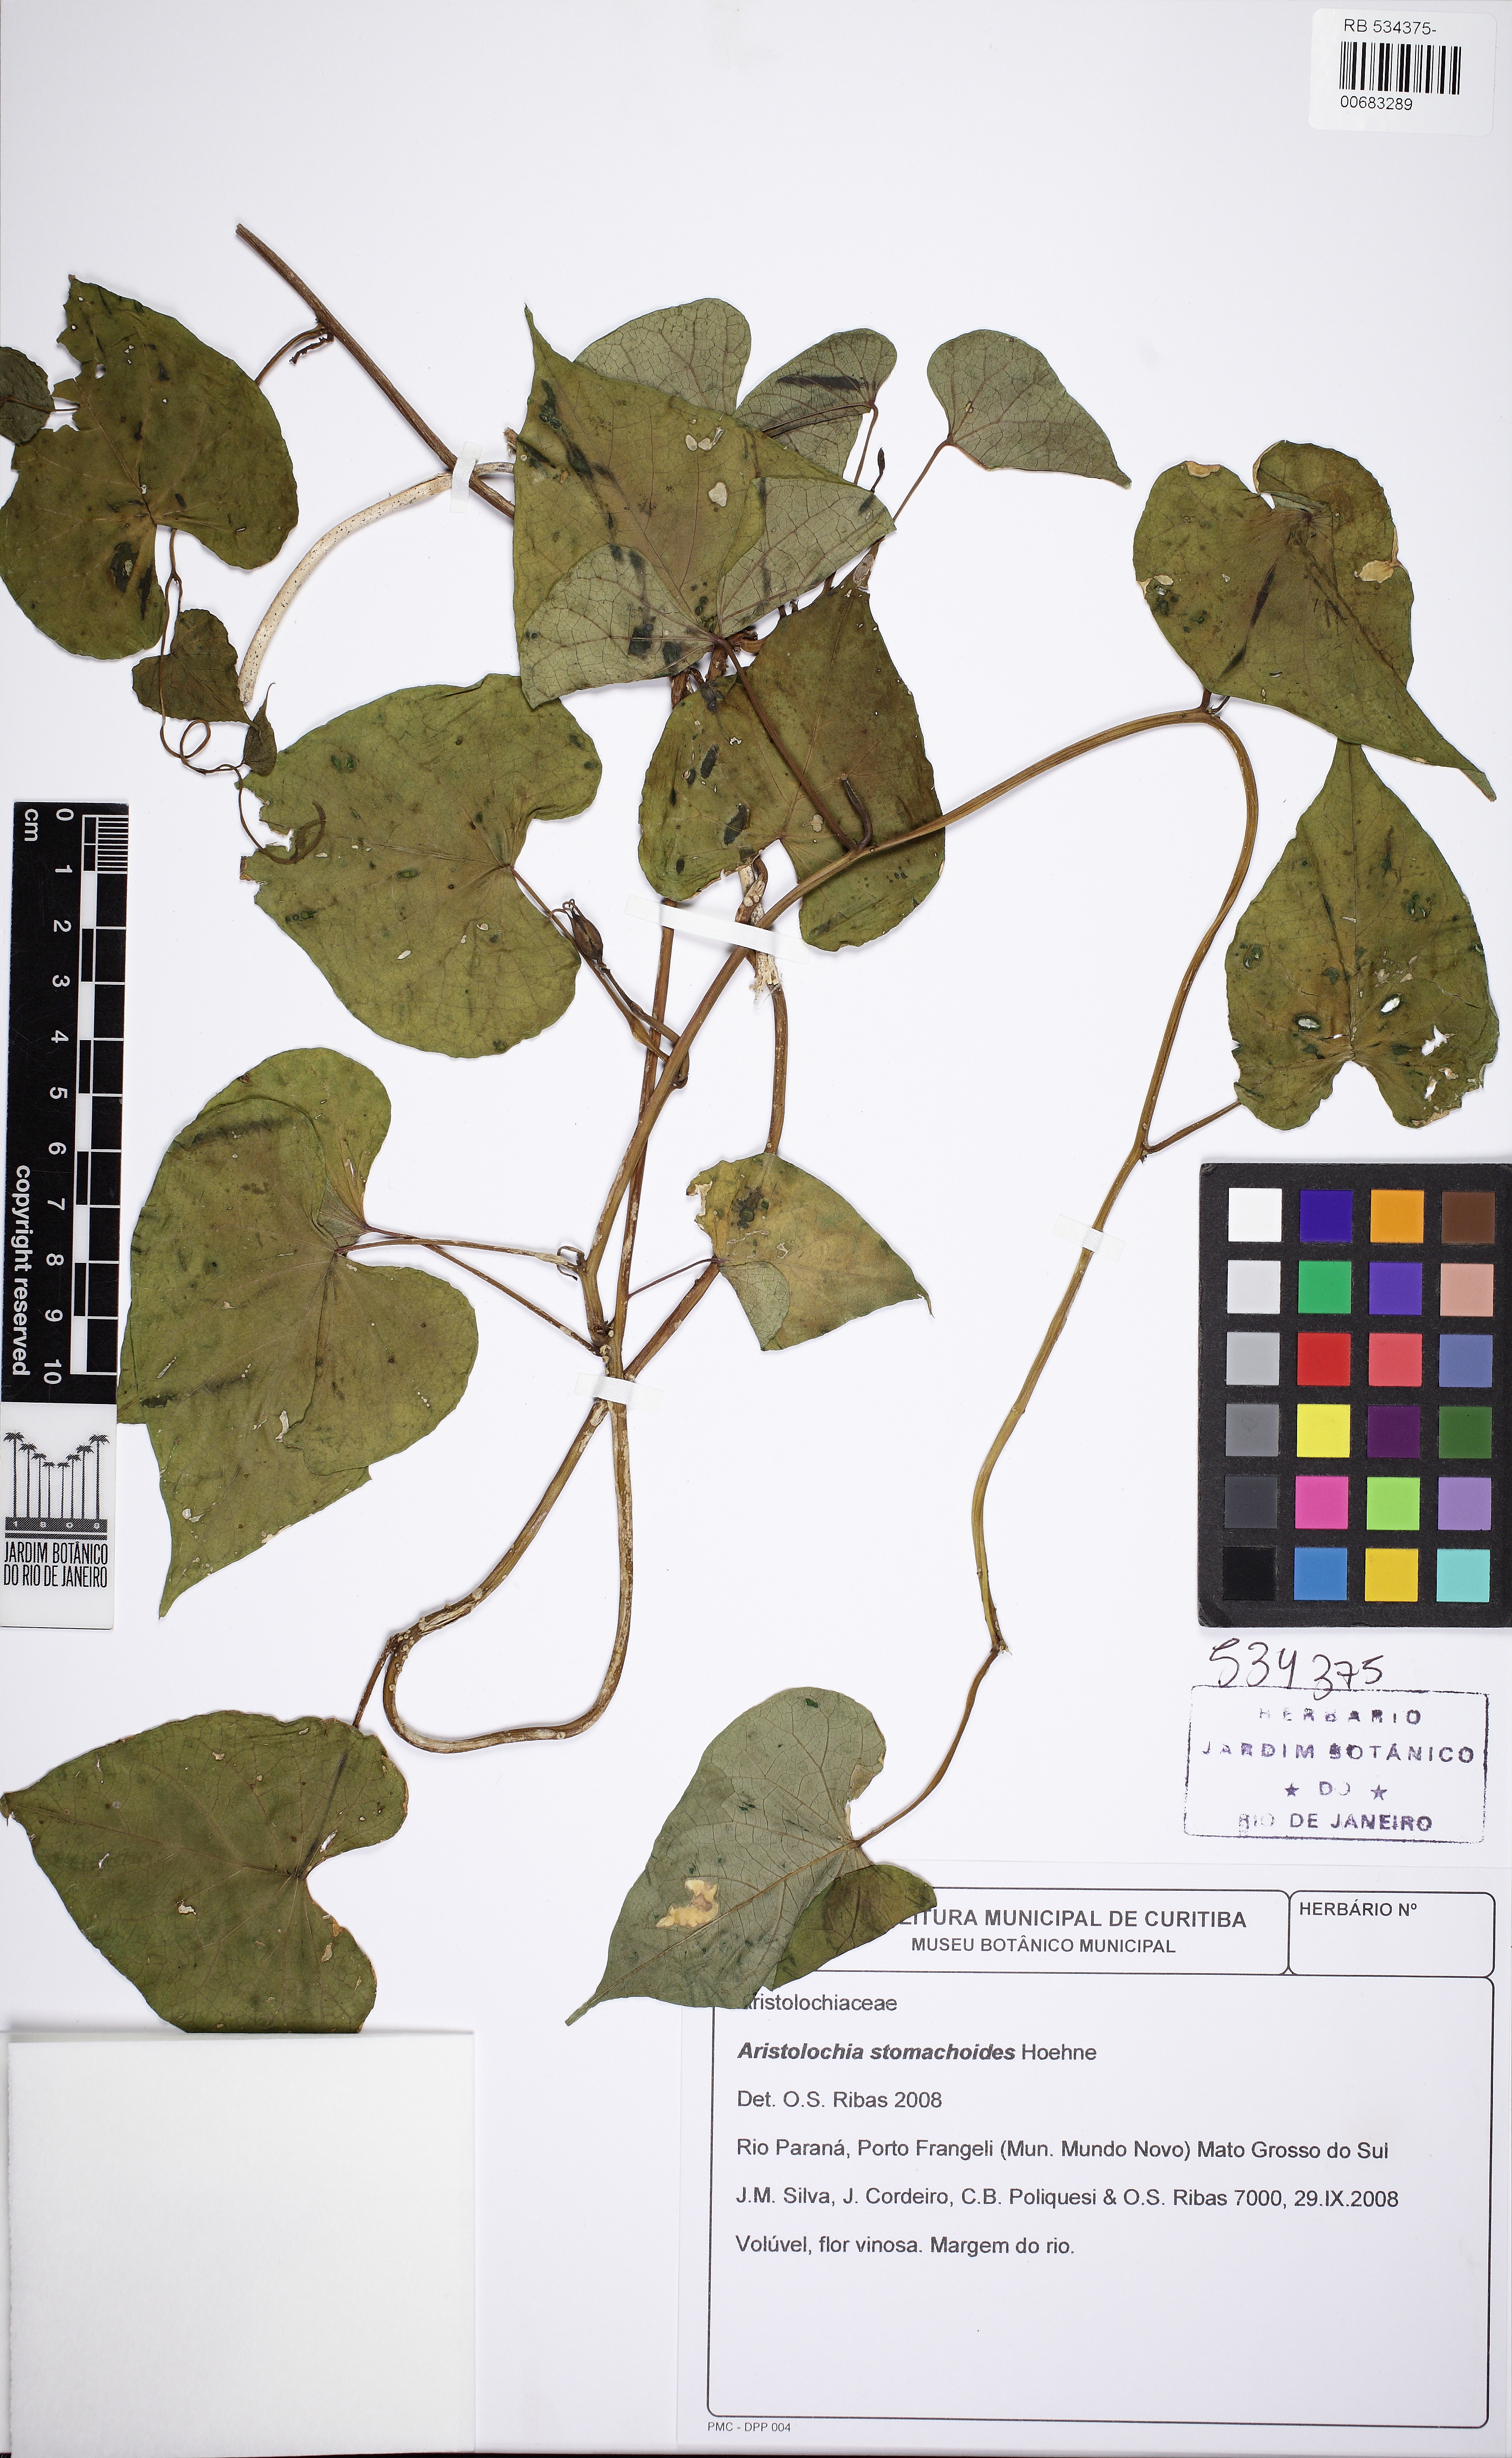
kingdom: Plantae
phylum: Tracheophyta
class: Magnoliopsida
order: Piperales
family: Aristolochiaceae
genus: Aristolochia
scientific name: Aristolochia stomachoides
